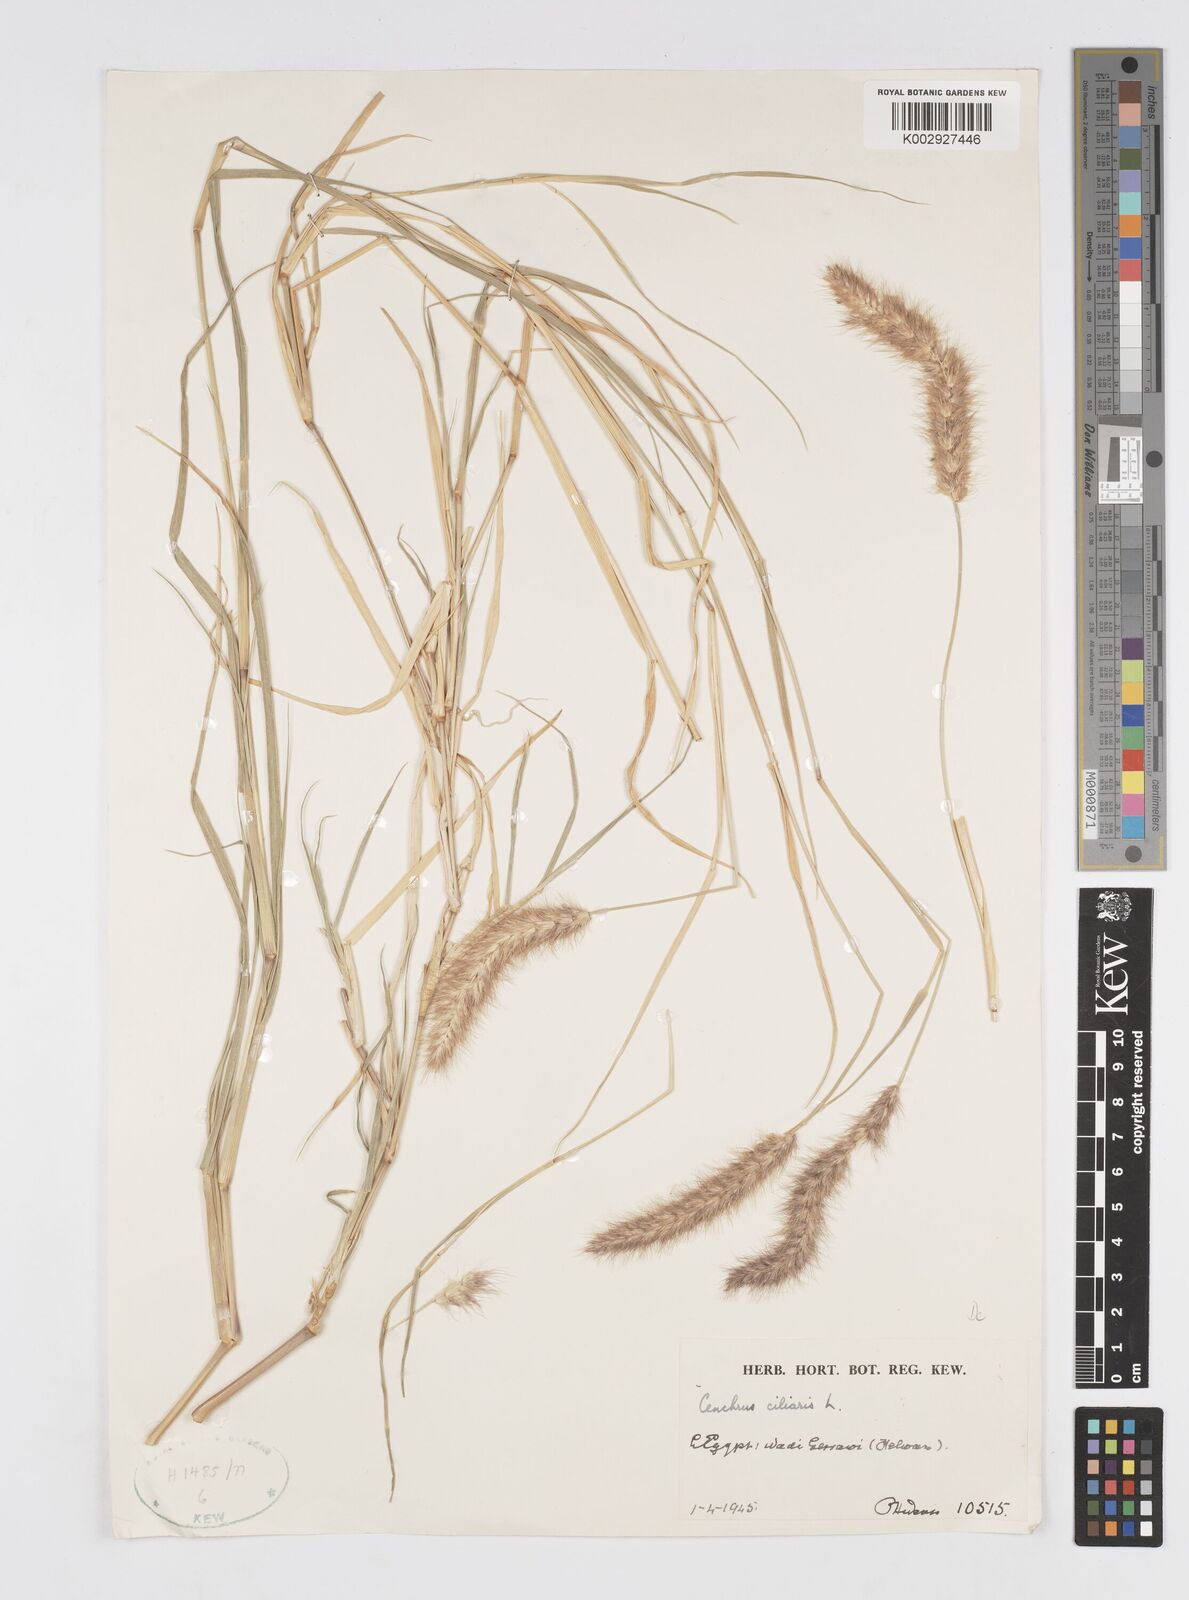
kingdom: Plantae
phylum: Tracheophyta
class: Liliopsida
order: Poales
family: Poaceae
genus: Cenchrus
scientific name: Cenchrus ciliaris
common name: Buffelgrass
